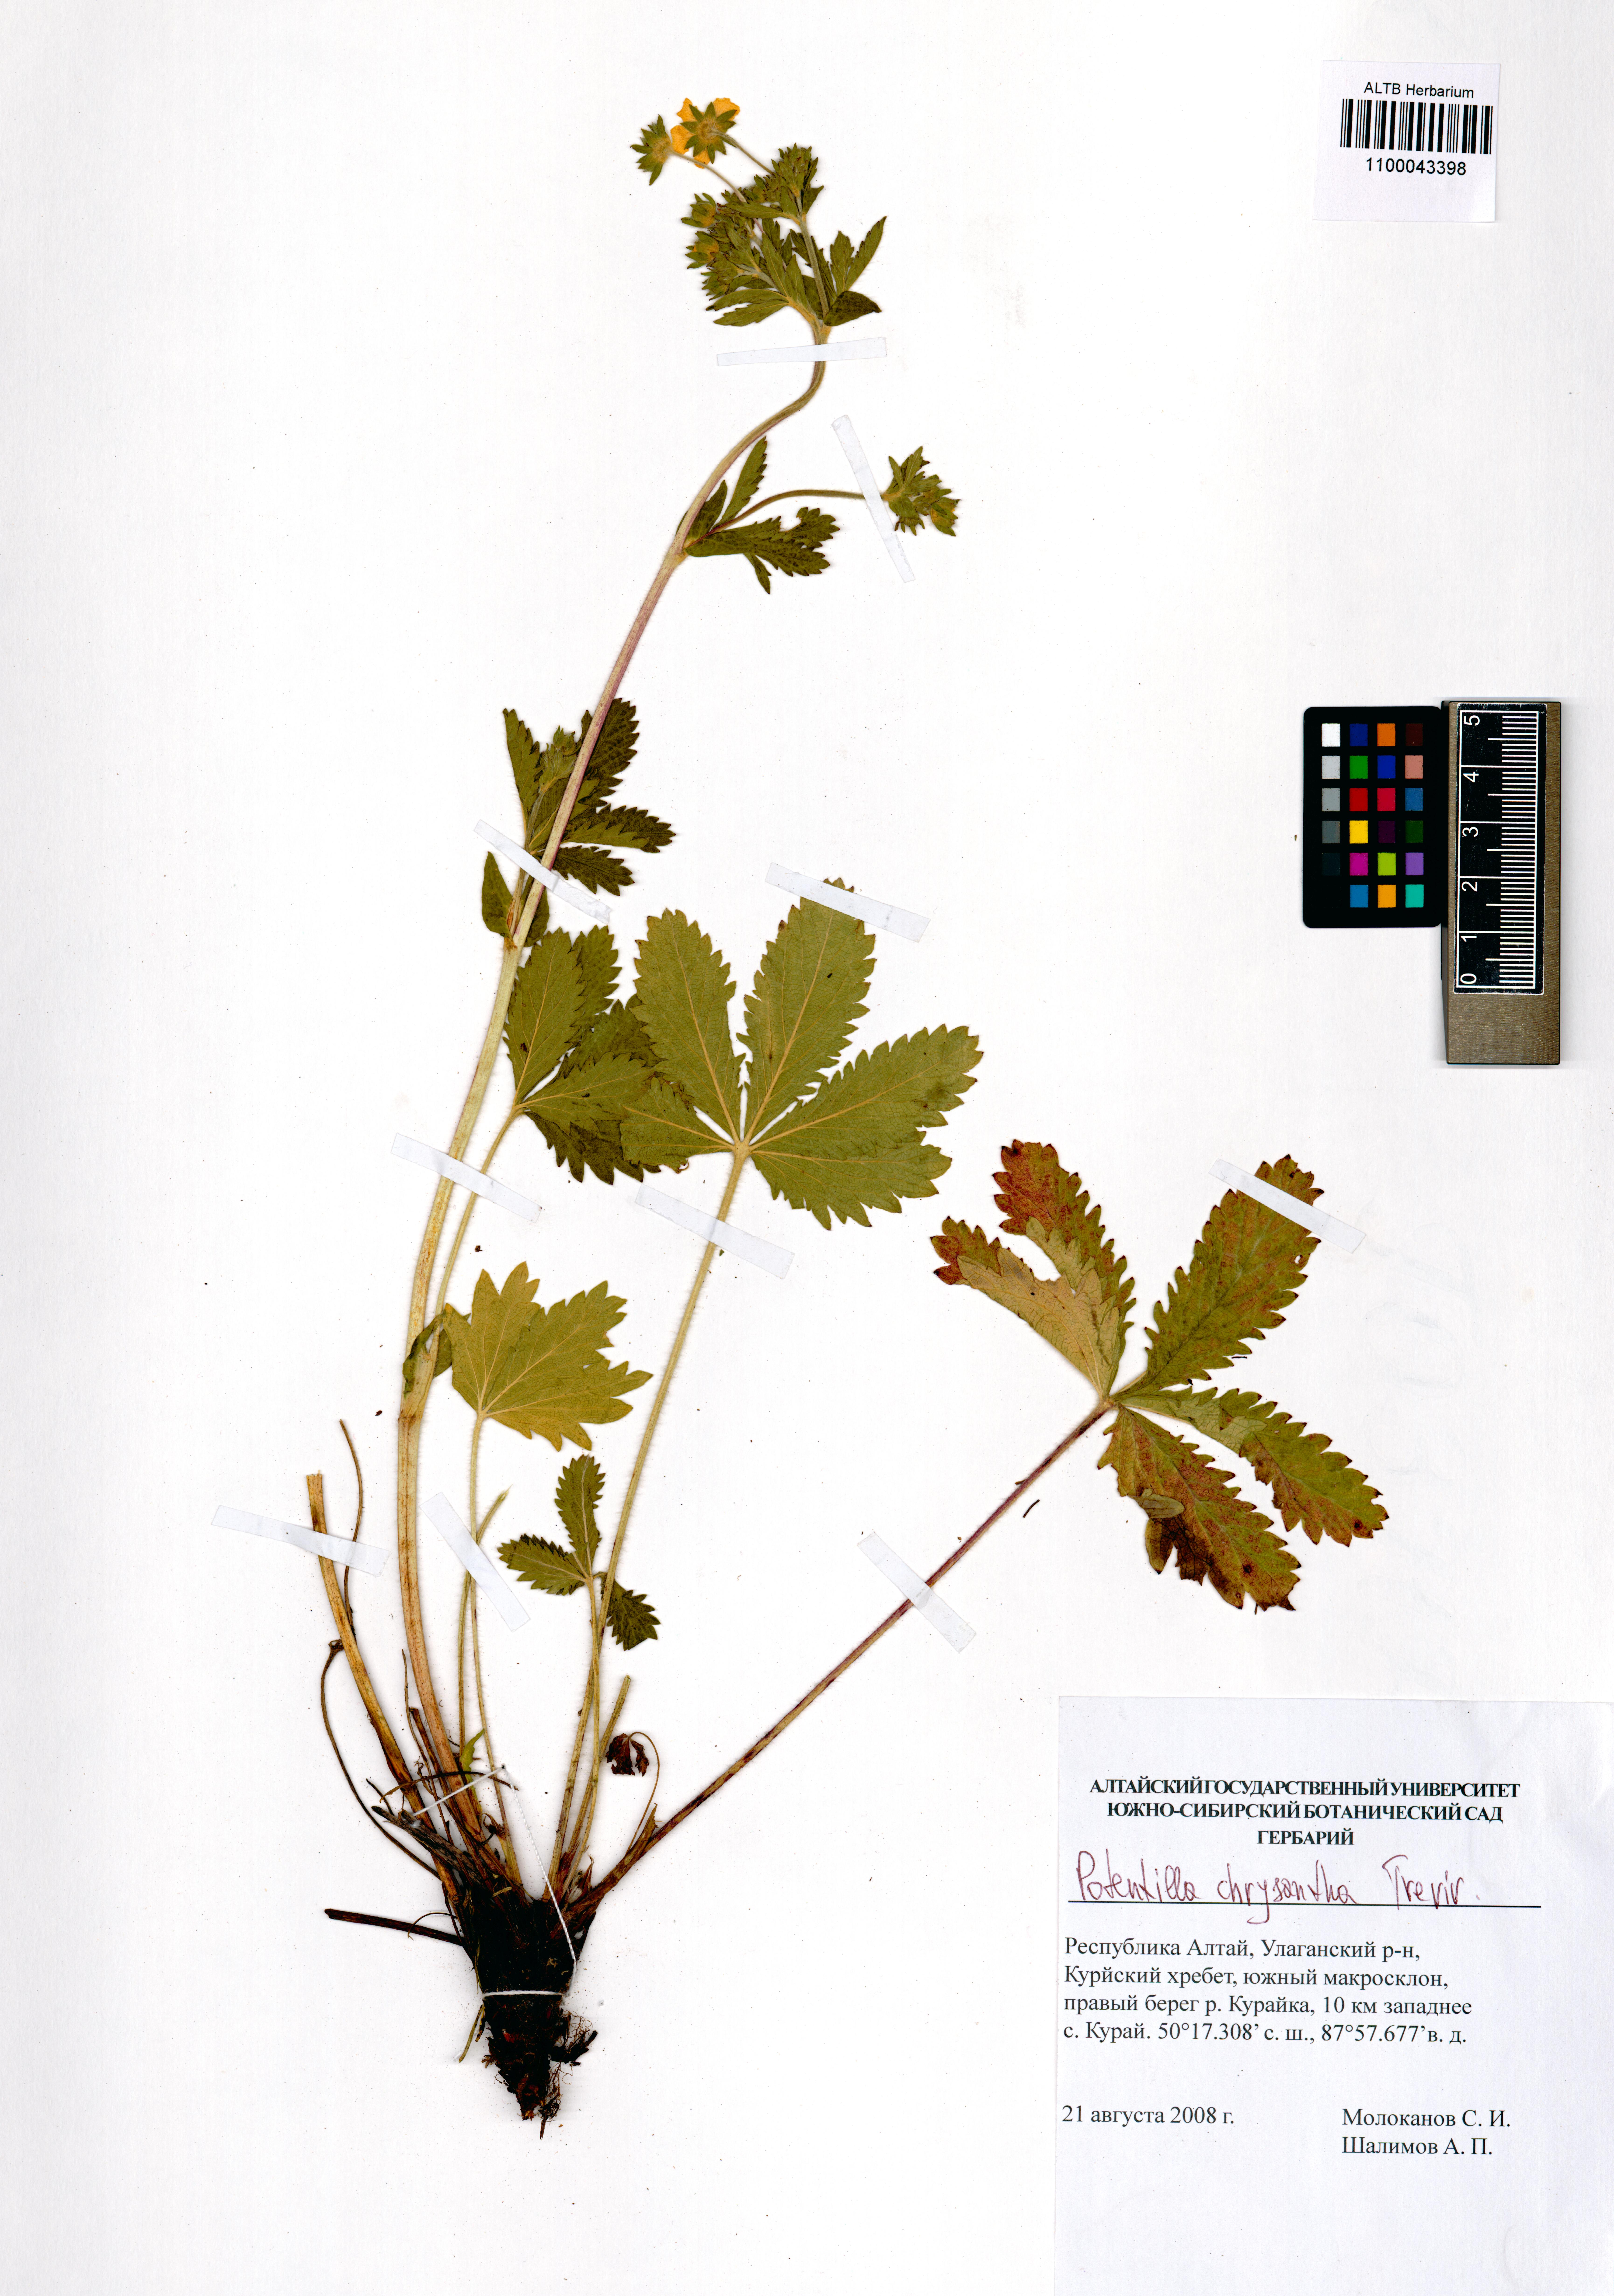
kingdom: Plantae
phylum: Tracheophyta
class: Magnoliopsida
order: Rosales
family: Rosaceae
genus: Potentilla
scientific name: Potentilla chrysantha
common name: Thuringian cinquefoil
